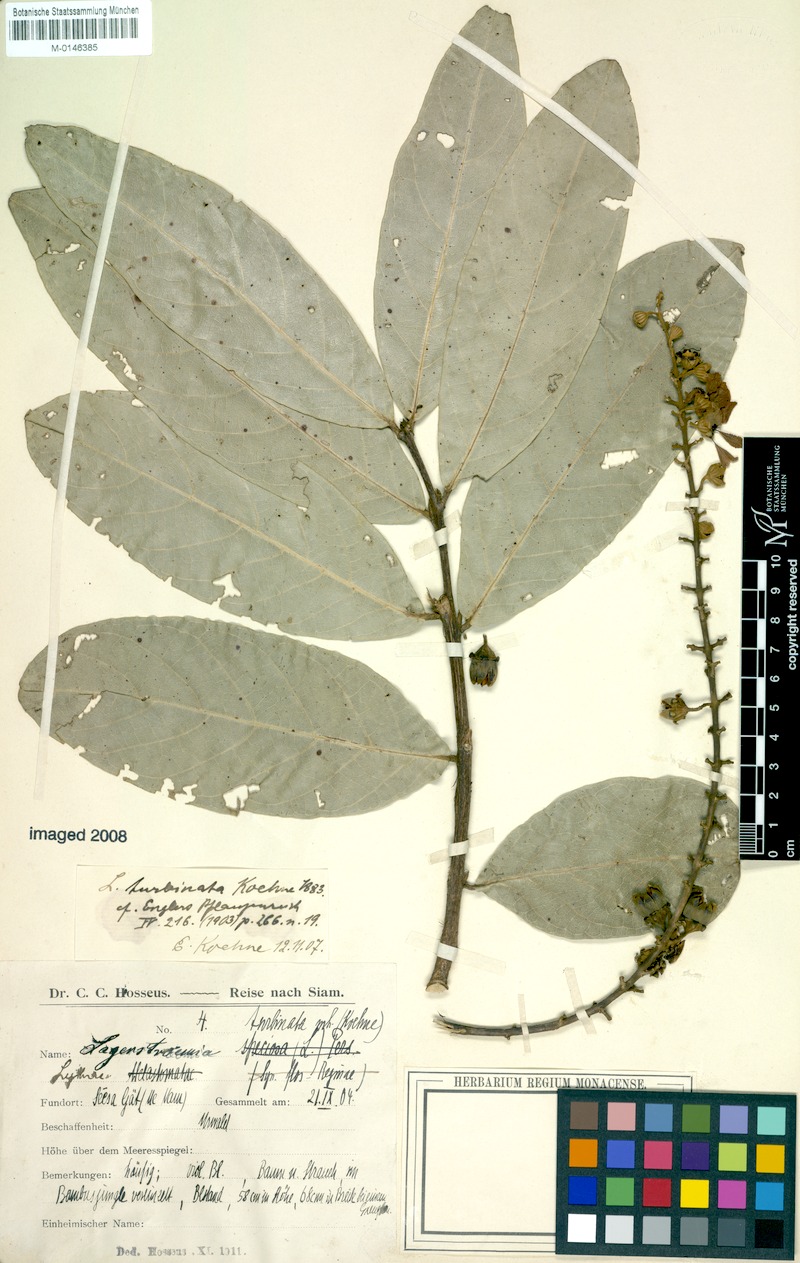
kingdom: Plantae
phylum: Tracheophyta
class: Magnoliopsida
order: Myrtales
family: Lythraceae
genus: Lagerstroemia
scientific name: Lagerstroemia floribunda
